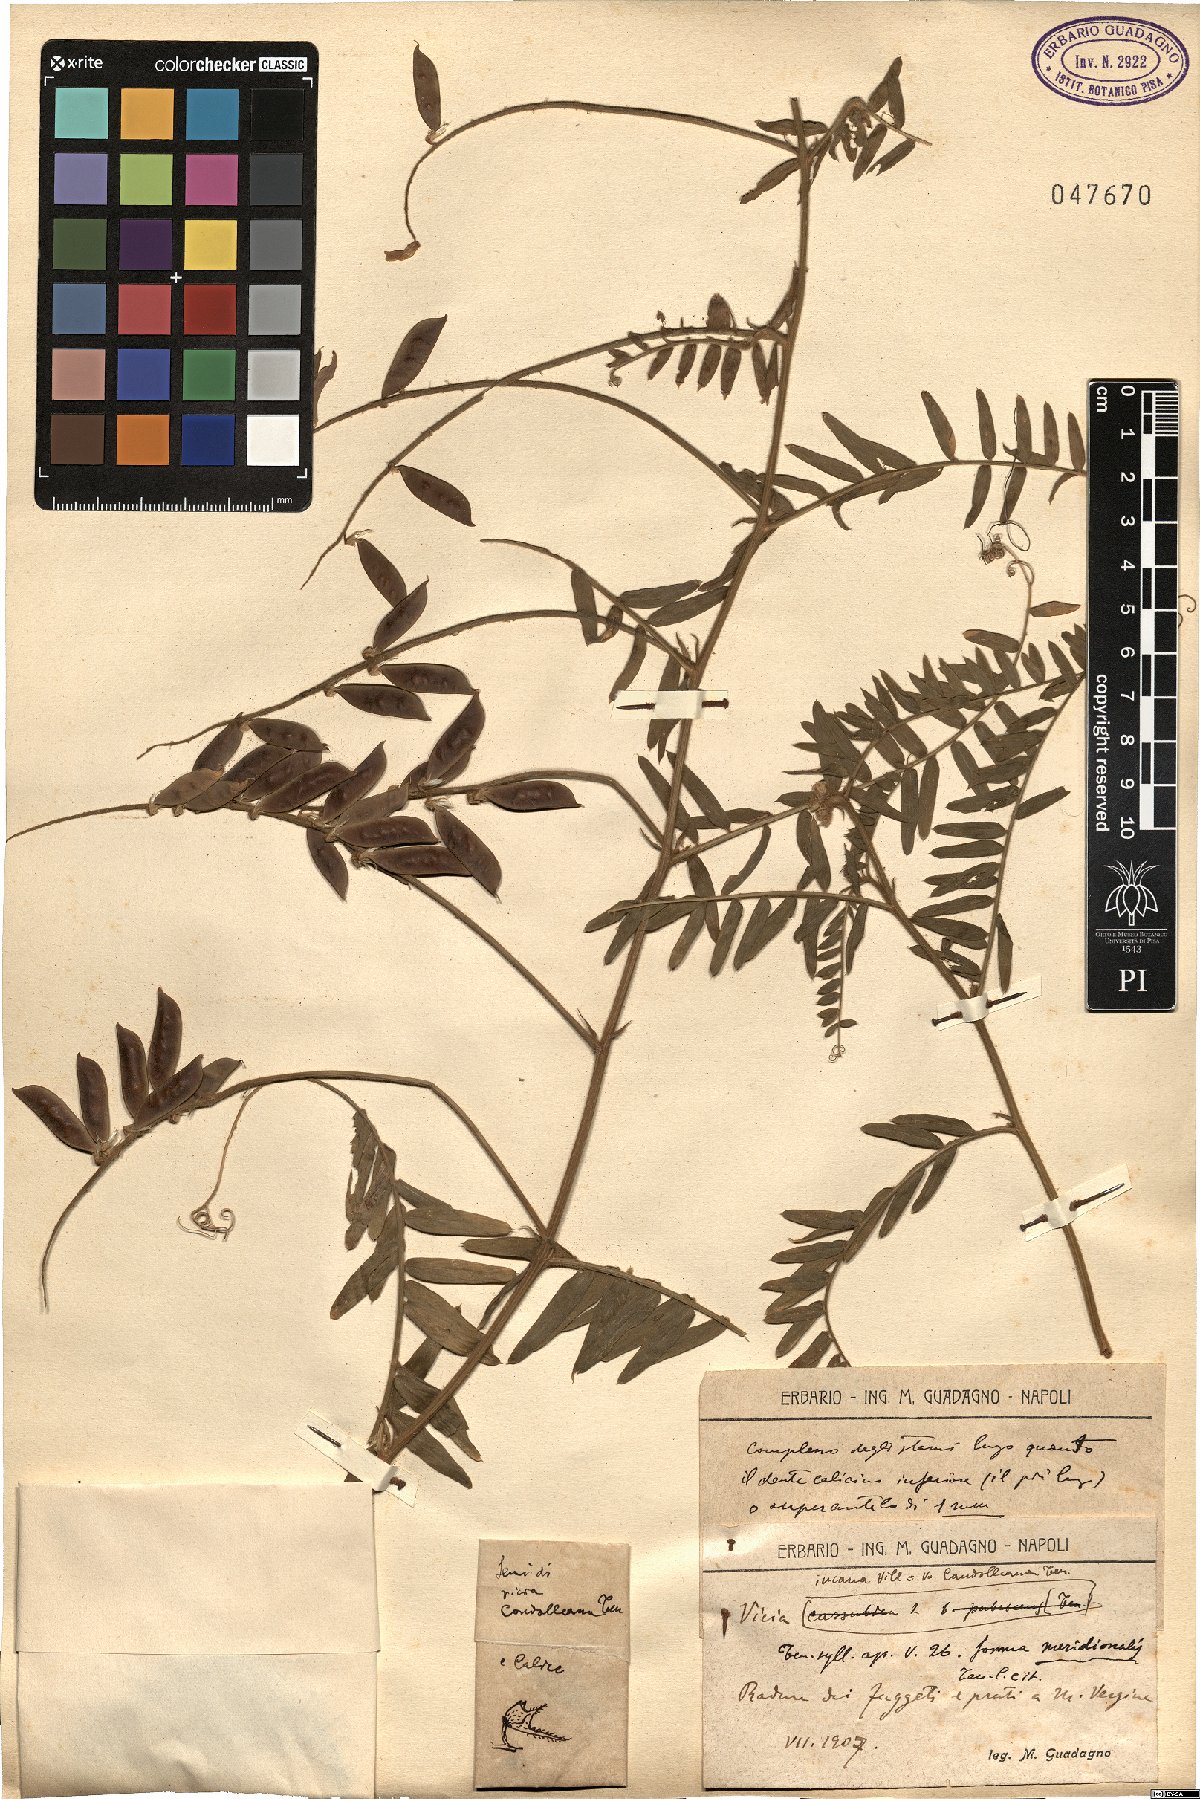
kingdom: Plantae
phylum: Tracheophyta
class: Magnoliopsida
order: Fabales
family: Fabaceae
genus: Vicia
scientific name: Vicia incana
